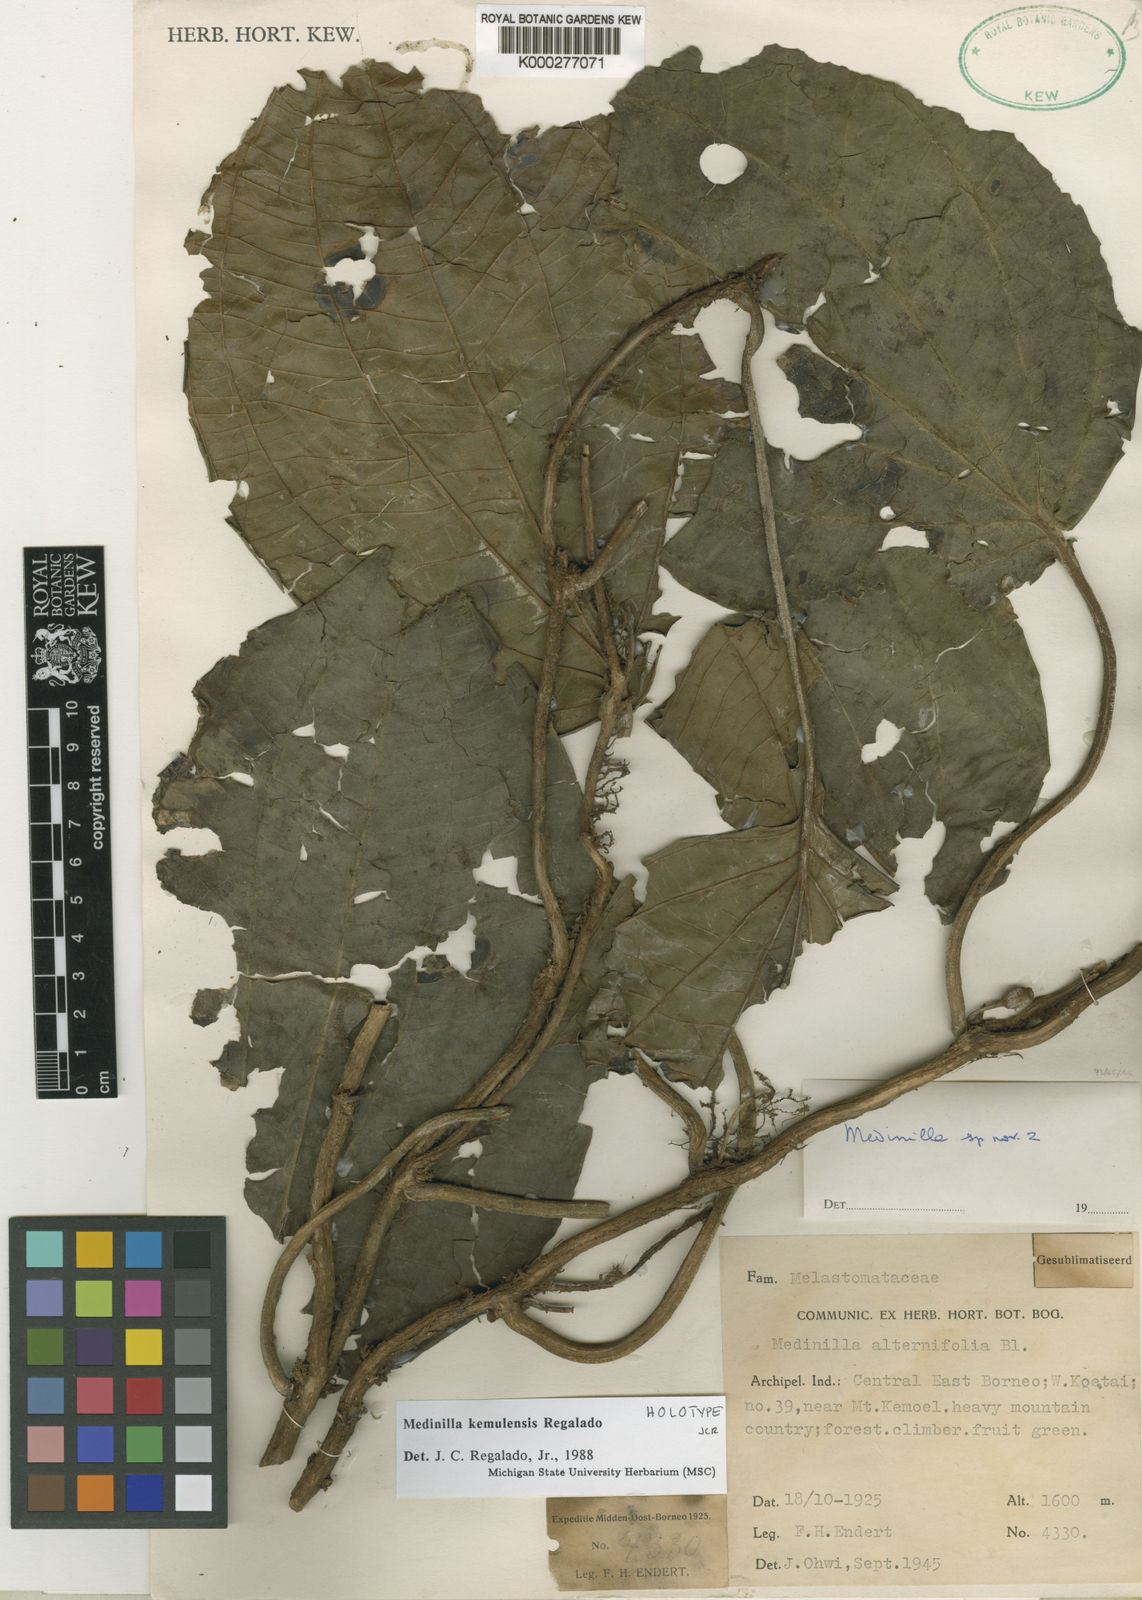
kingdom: Plantae
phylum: Tracheophyta
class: Magnoliopsida
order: Myrtales
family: Melastomataceae
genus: Heteroblemma
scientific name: Heteroblemma kemulense
